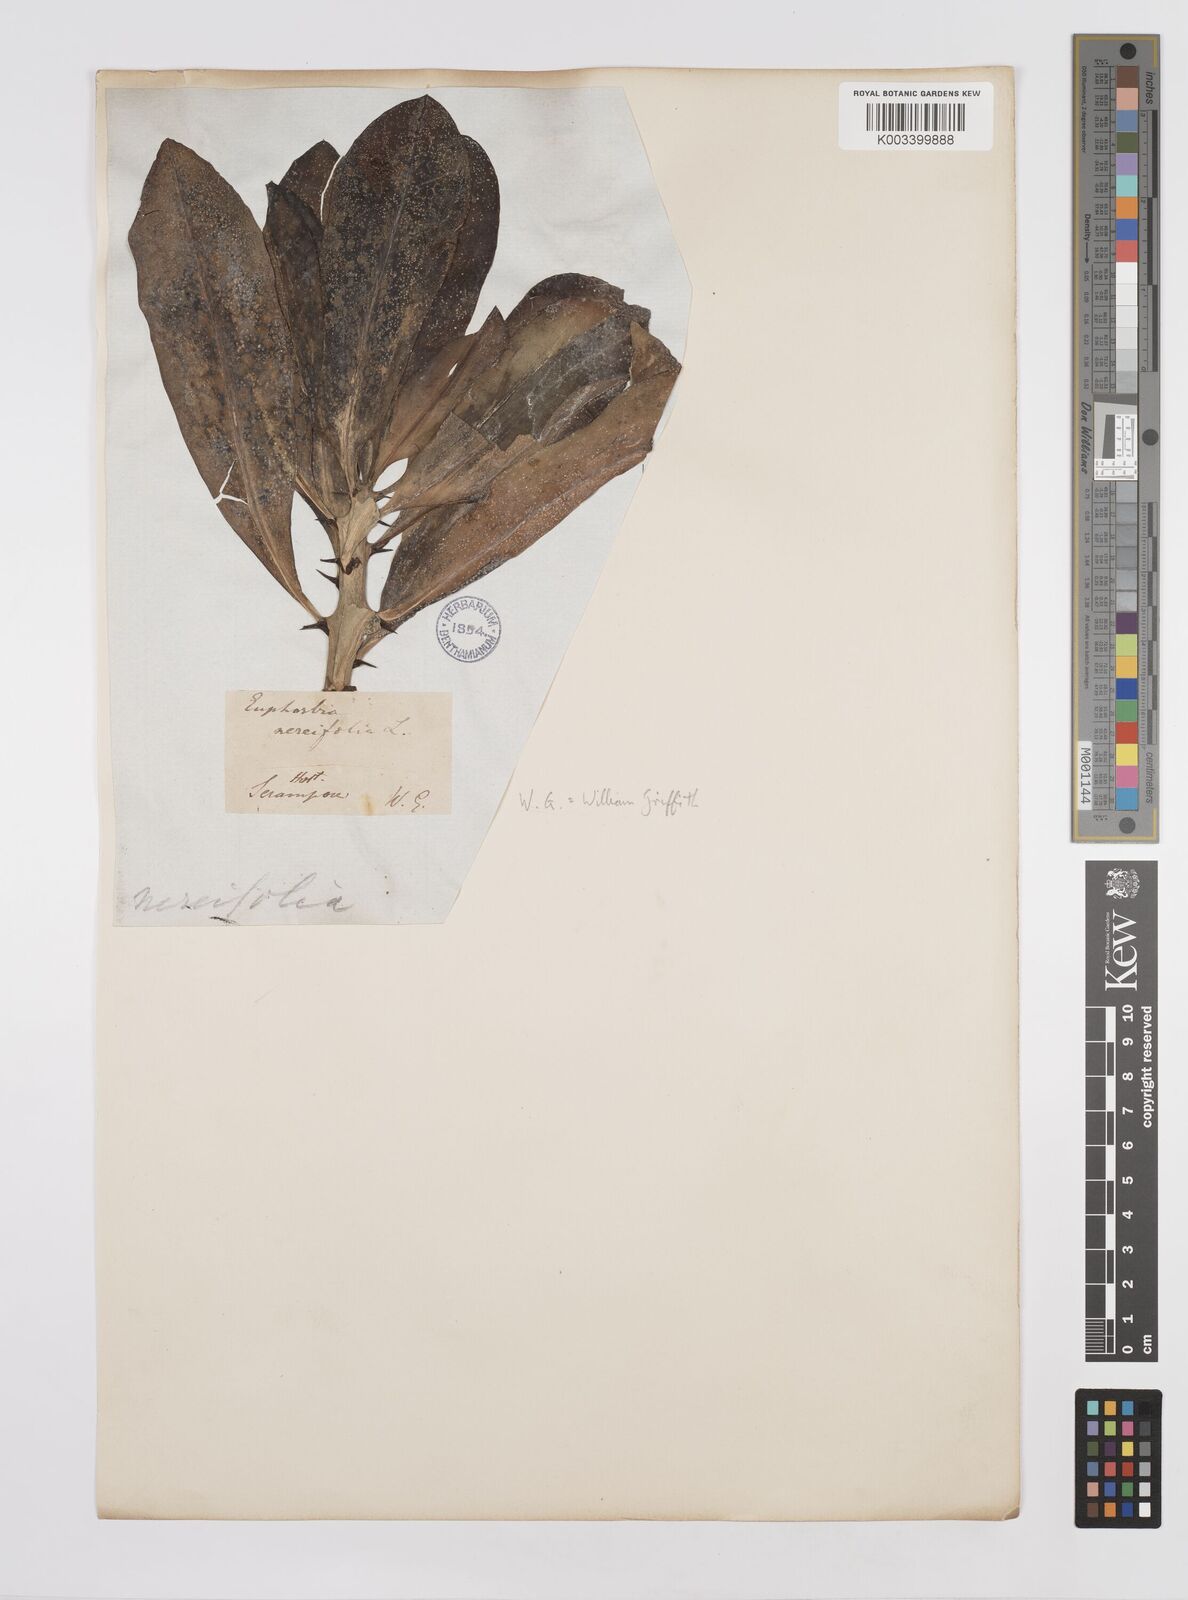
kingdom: Plantae
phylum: Tracheophyta
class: Magnoliopsida
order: Malpighiales
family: Euphorbiaceae
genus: Euphorbia
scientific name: Euphorbia
